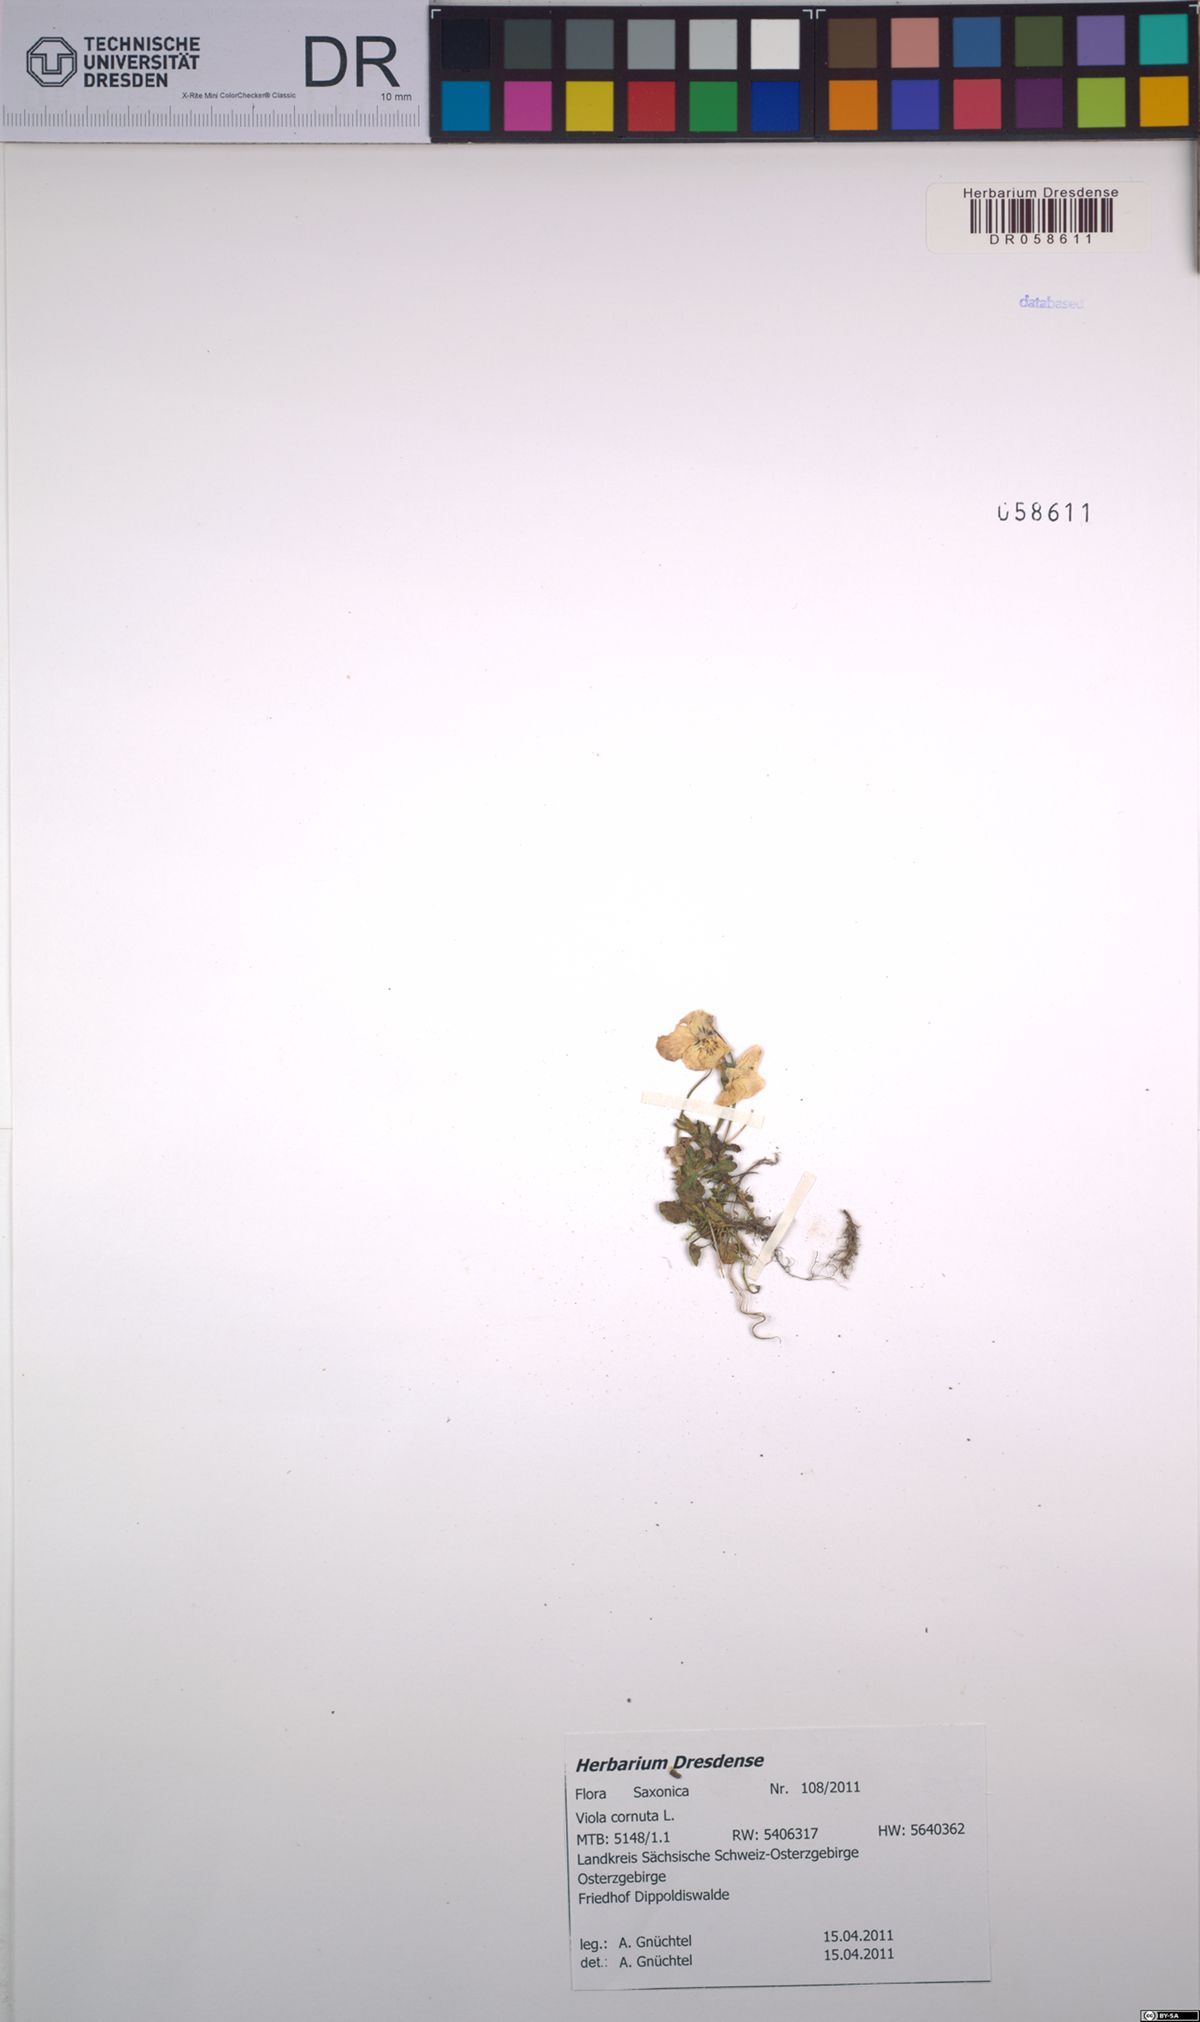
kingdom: Plantae
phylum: Tracheophyta
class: Magnoliopsida
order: Malpighiales
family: Violaceae
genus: Viola
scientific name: Viola cornuta
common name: Horned pansy
